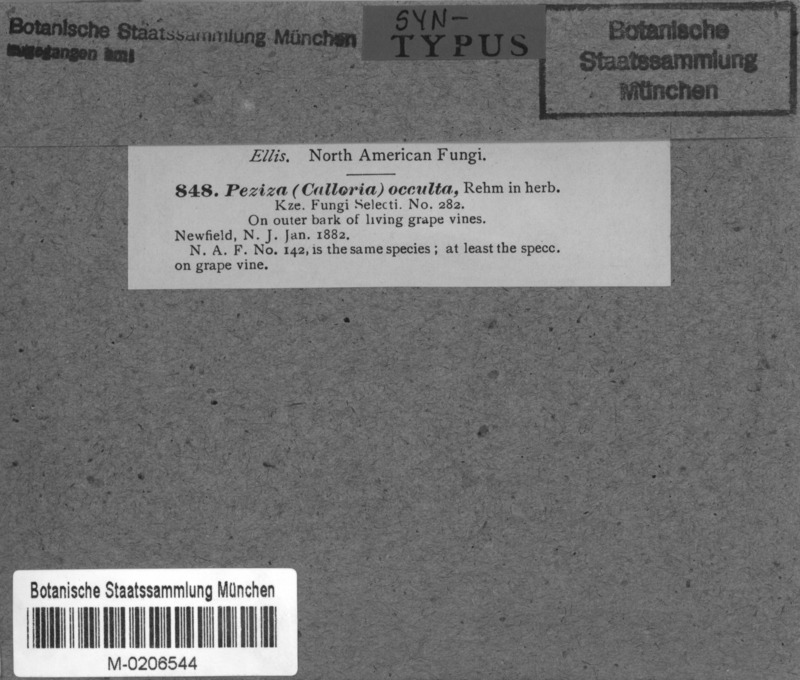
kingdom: Fungi
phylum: Ascomycota
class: Orbiliomycetes
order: Orbiliales
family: Orbiliaceae
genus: Orbilia
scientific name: Orbilia cruenta
